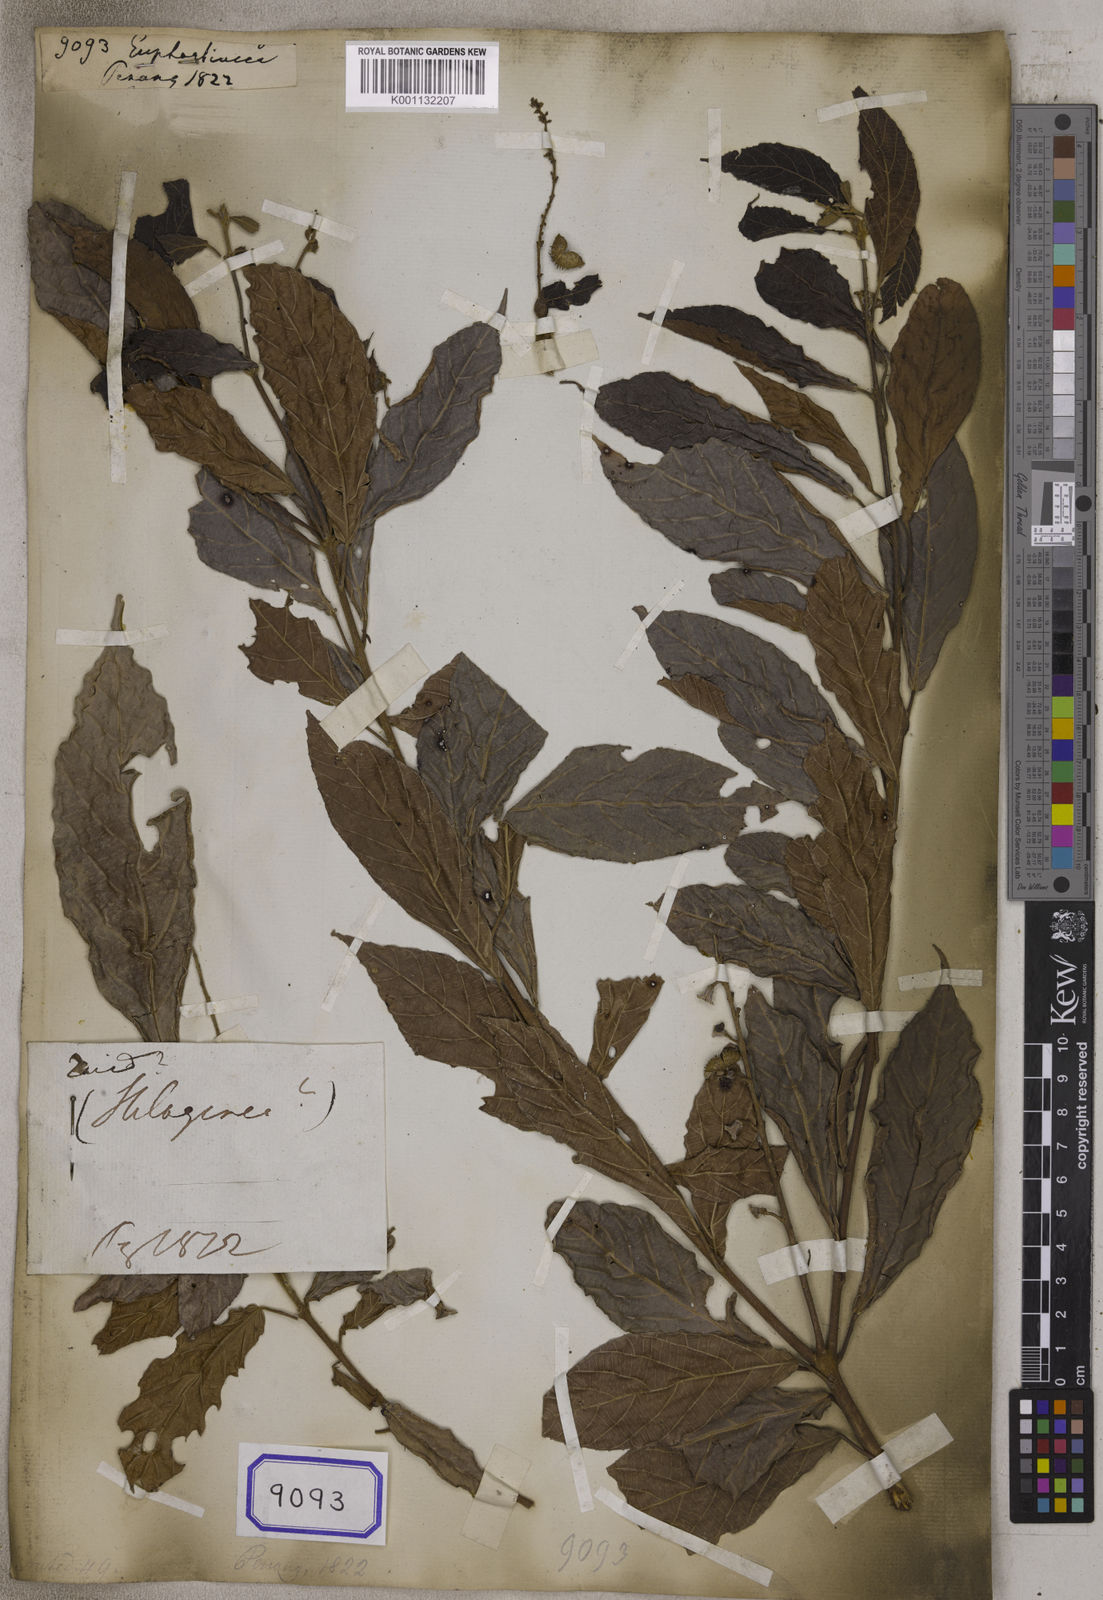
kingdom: Plantae
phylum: Tracheophyta
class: Magnoliopsida
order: Malpighiales
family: Euphorbiaceae
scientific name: Euphorbiaceae
